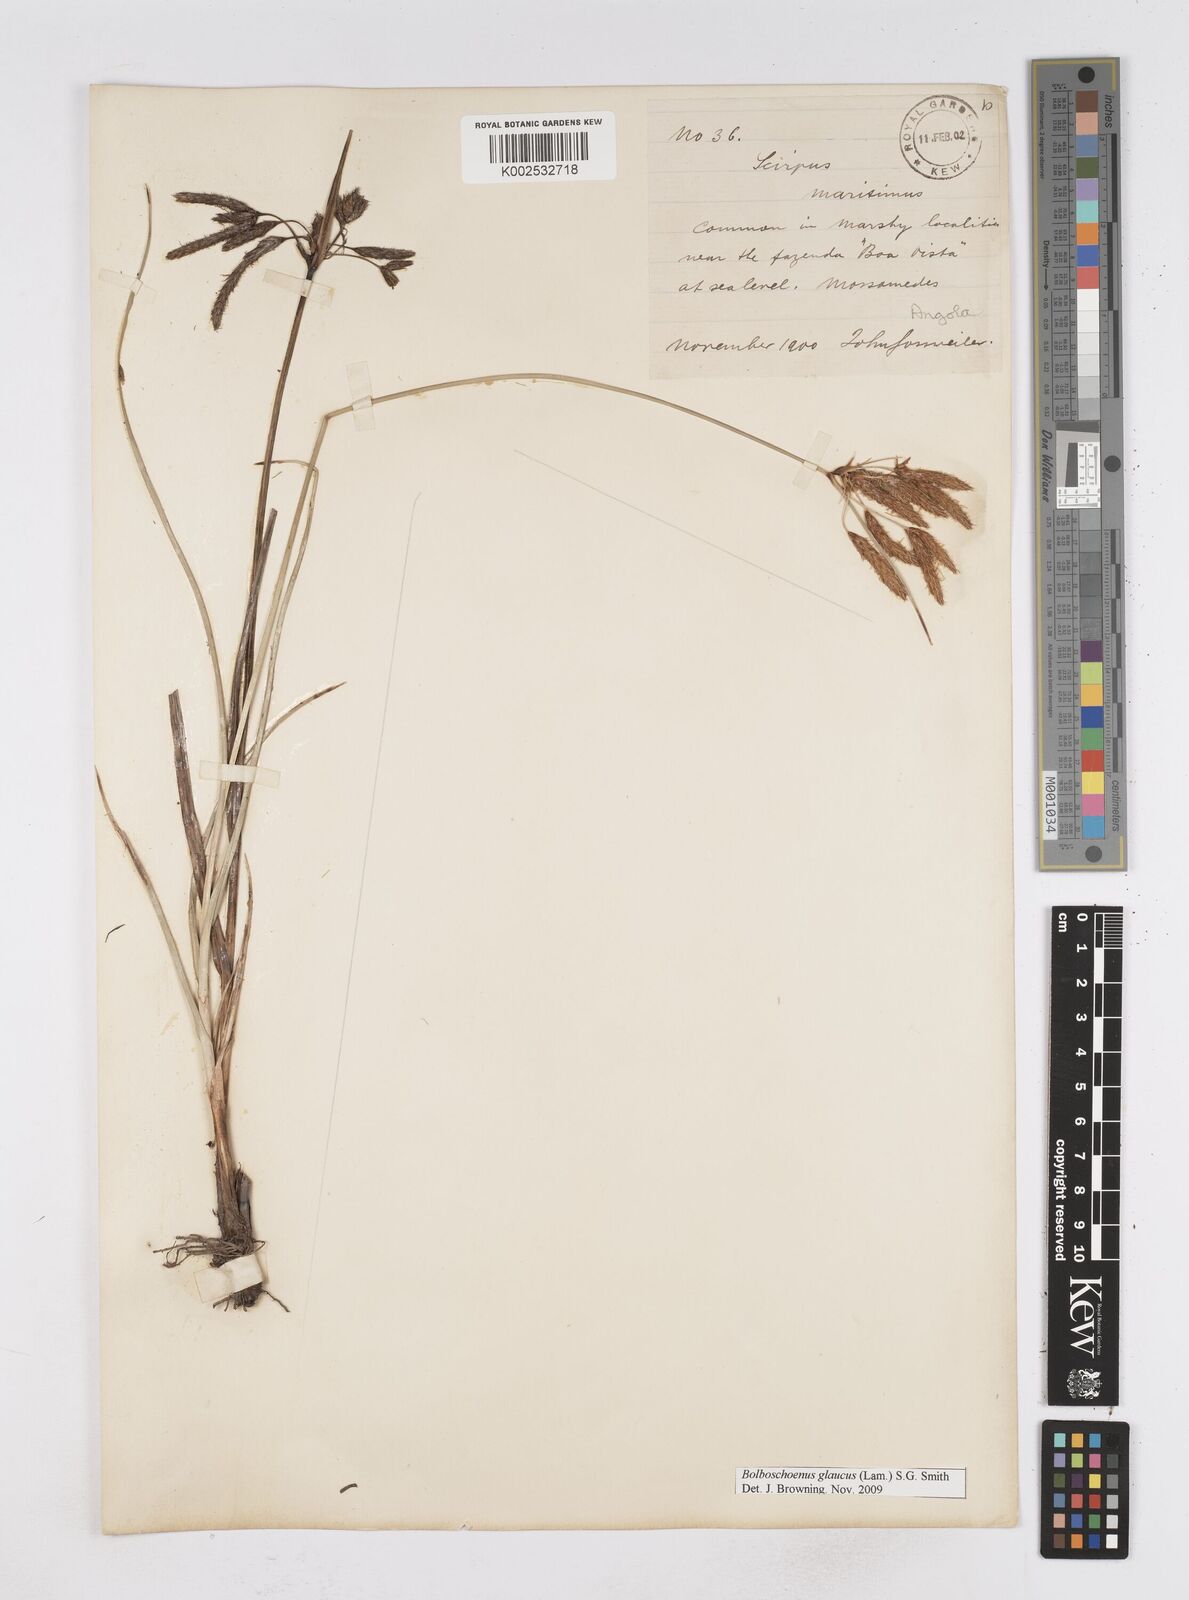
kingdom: Plantae
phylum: Tracheophyta
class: Liliopsida
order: Poales
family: Cyperaceae
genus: Bolboschoenus
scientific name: Bolboschoenus glaucus
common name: Tuberous bulrush
